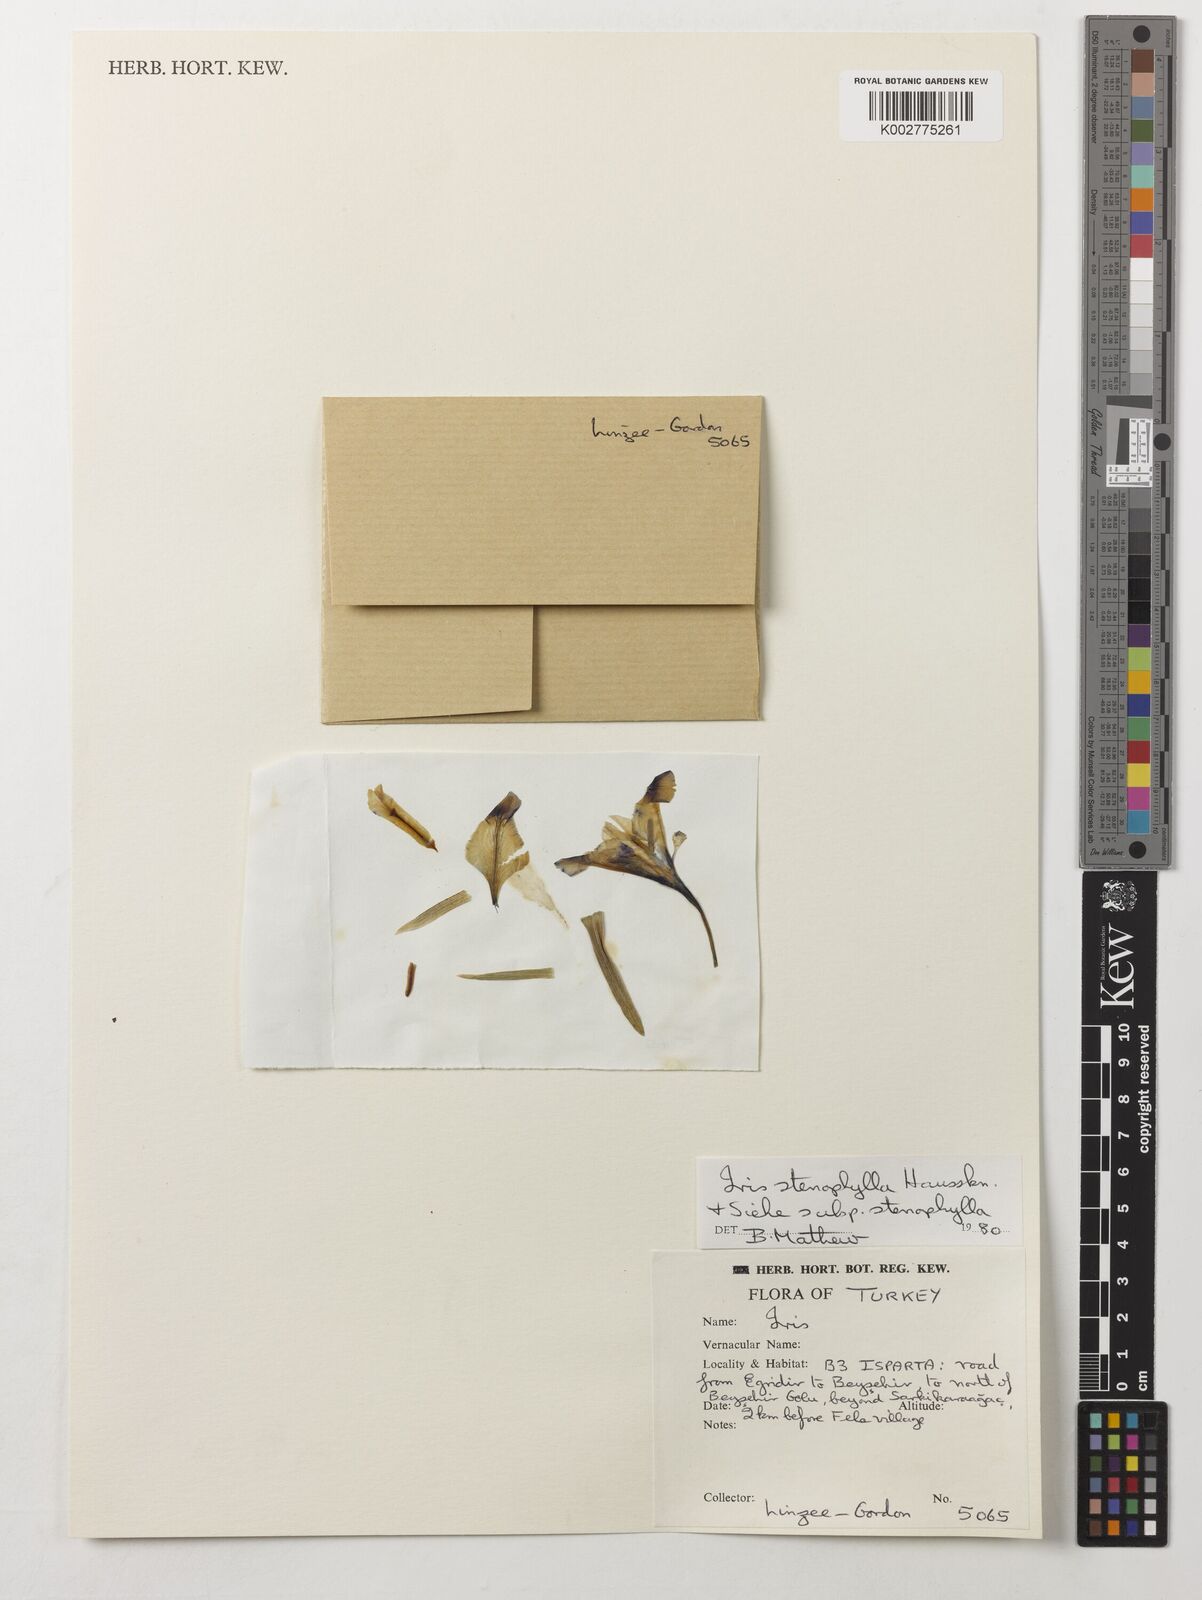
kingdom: Plantae
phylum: Tracheophyta
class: Liliopsida
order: Asparagales
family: Iridaceae
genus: Iris
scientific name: Iris stenophylla
